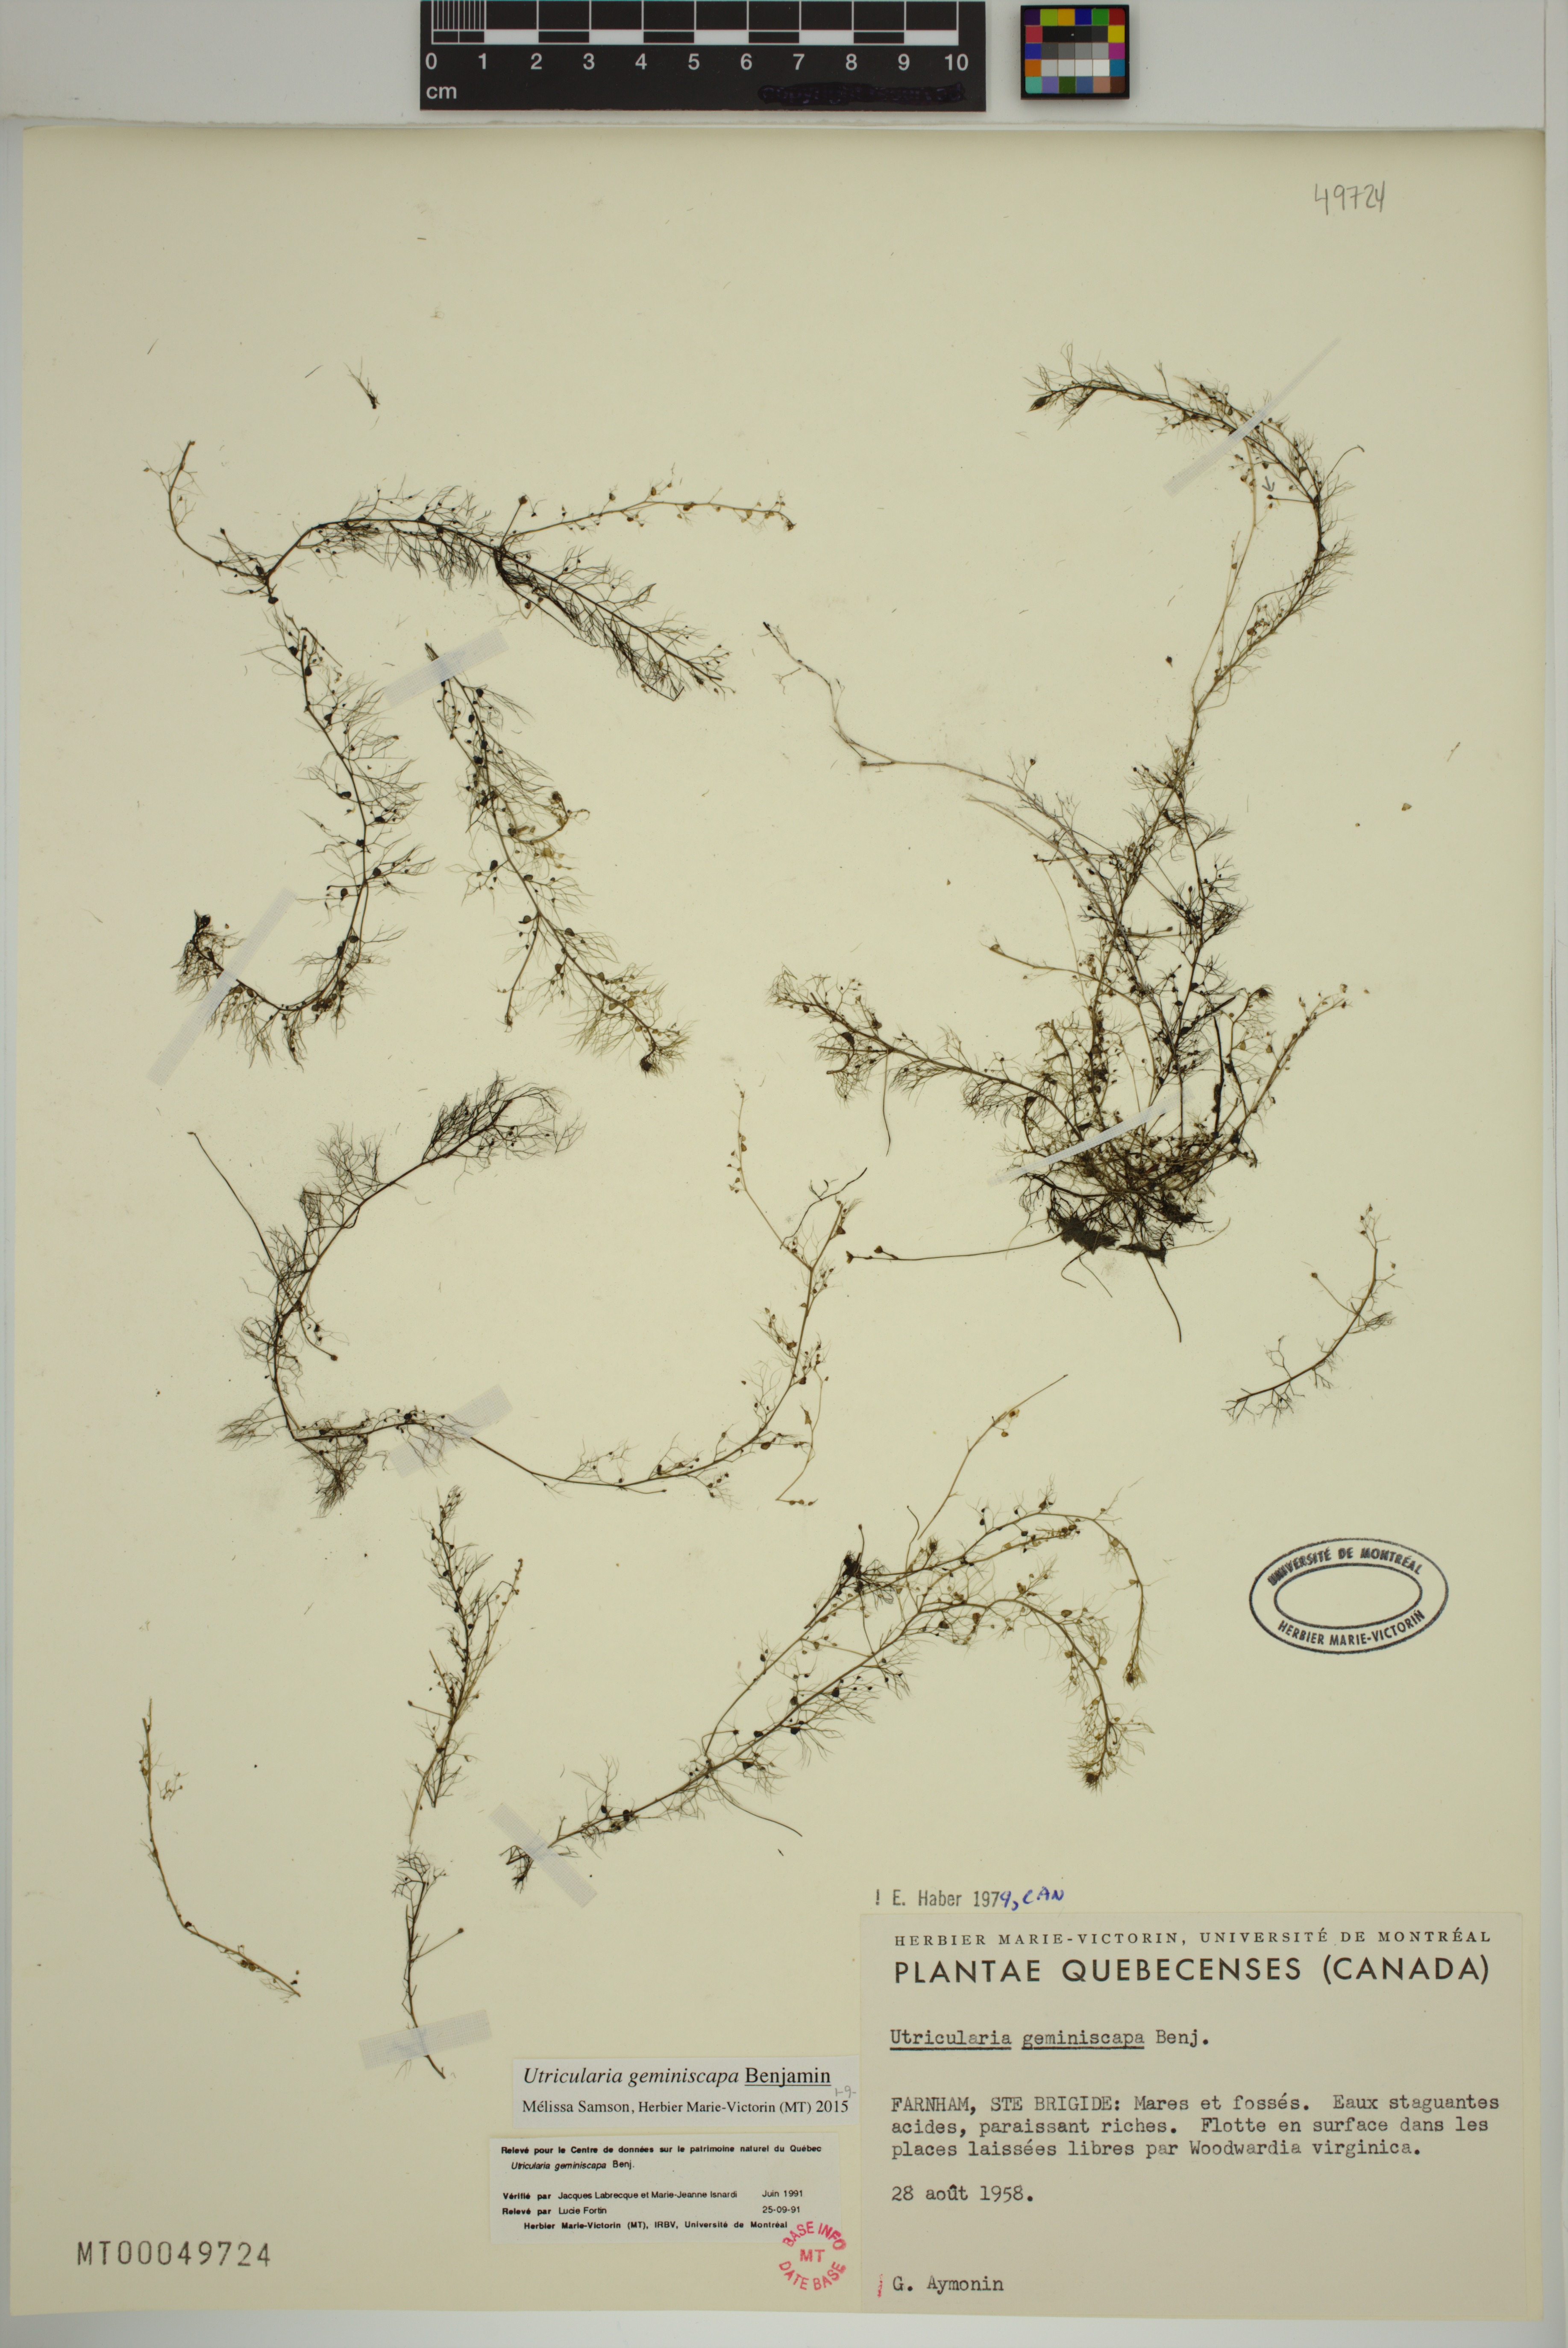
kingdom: Plantae
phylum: Tracheophyta
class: Magnoliopsida
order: Lamiales
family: Lentibulariaceae
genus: Utricularia
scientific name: Utricularia geminiscapa
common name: Hidden-fruit bladderwort
